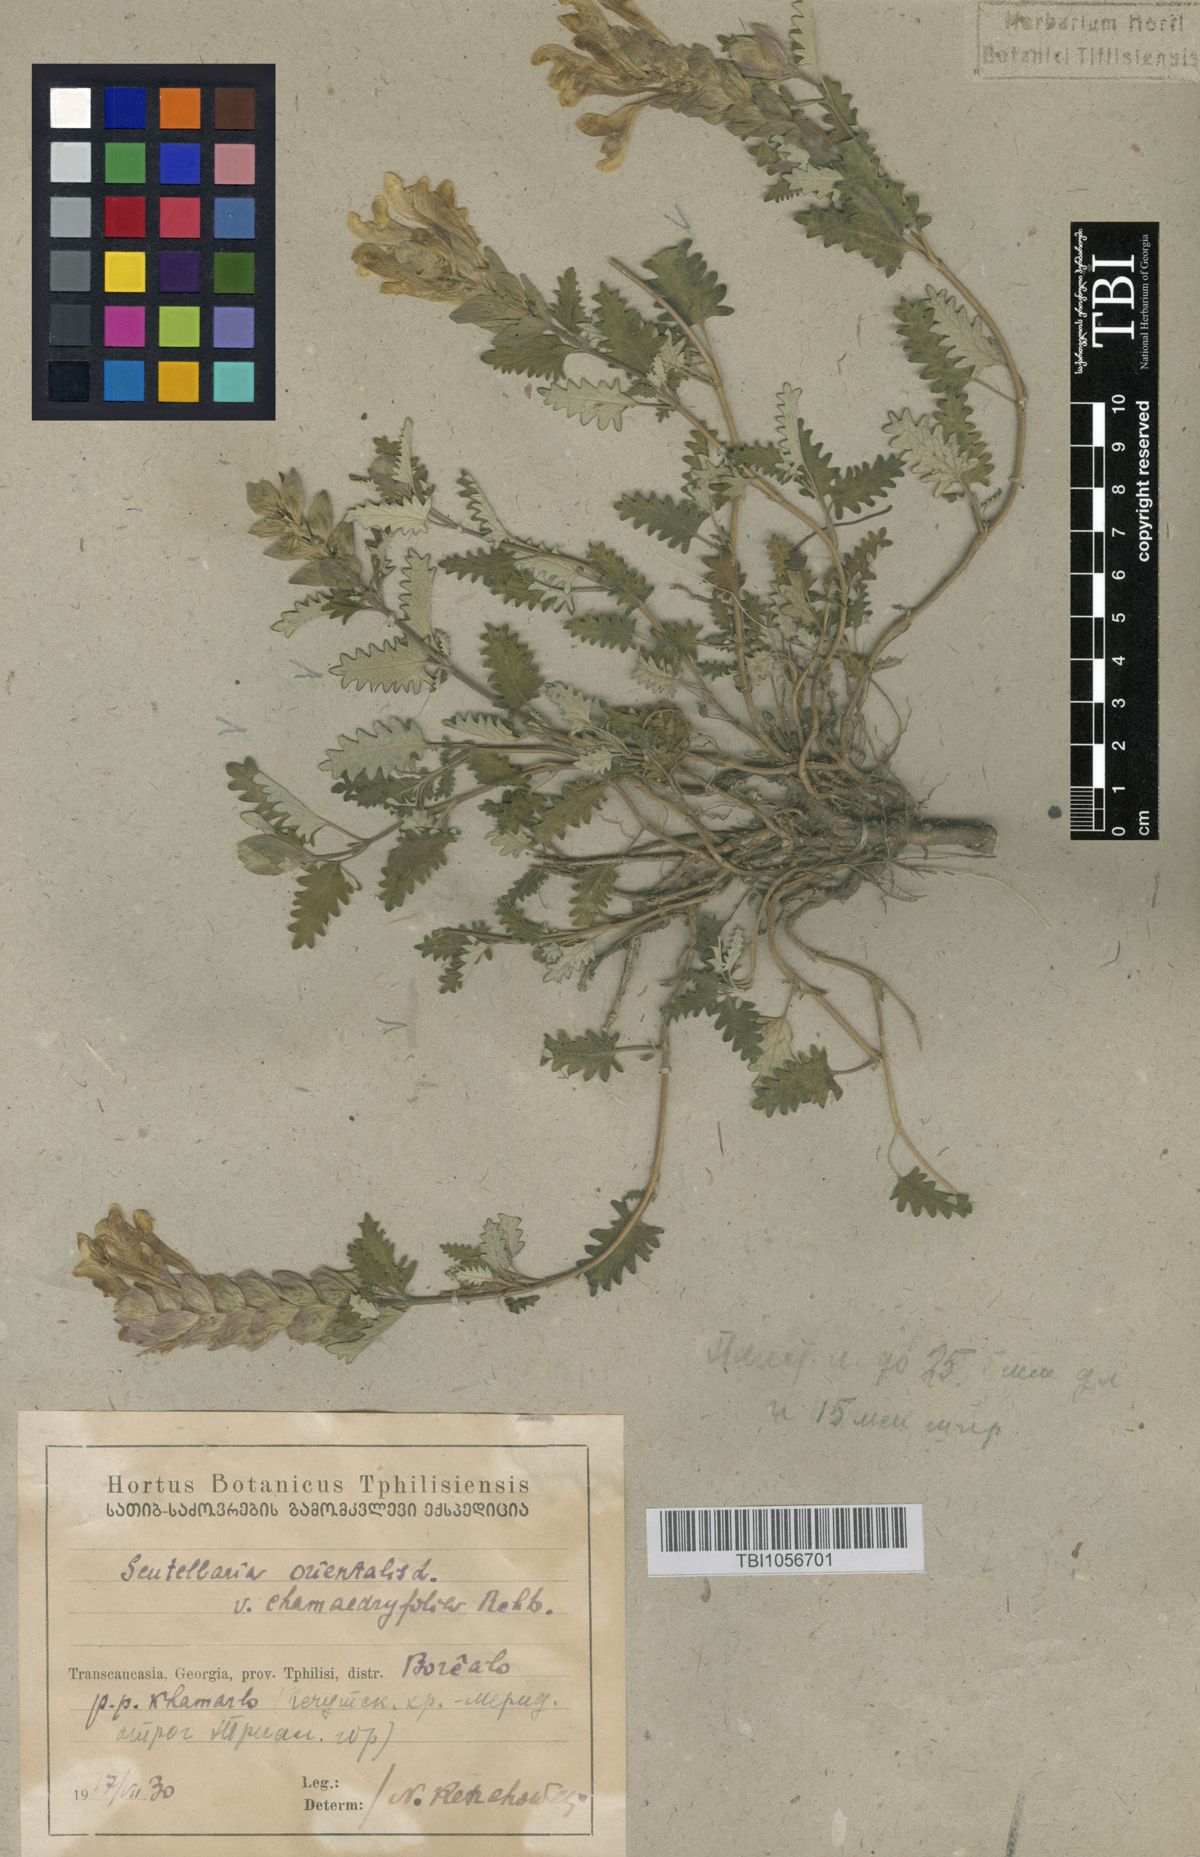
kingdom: Plantae
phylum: Tracheophyta
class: Magnoliopsida
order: Lamiales
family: Lamiaceae
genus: Scutellaria
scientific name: Scutellaria orientalis
